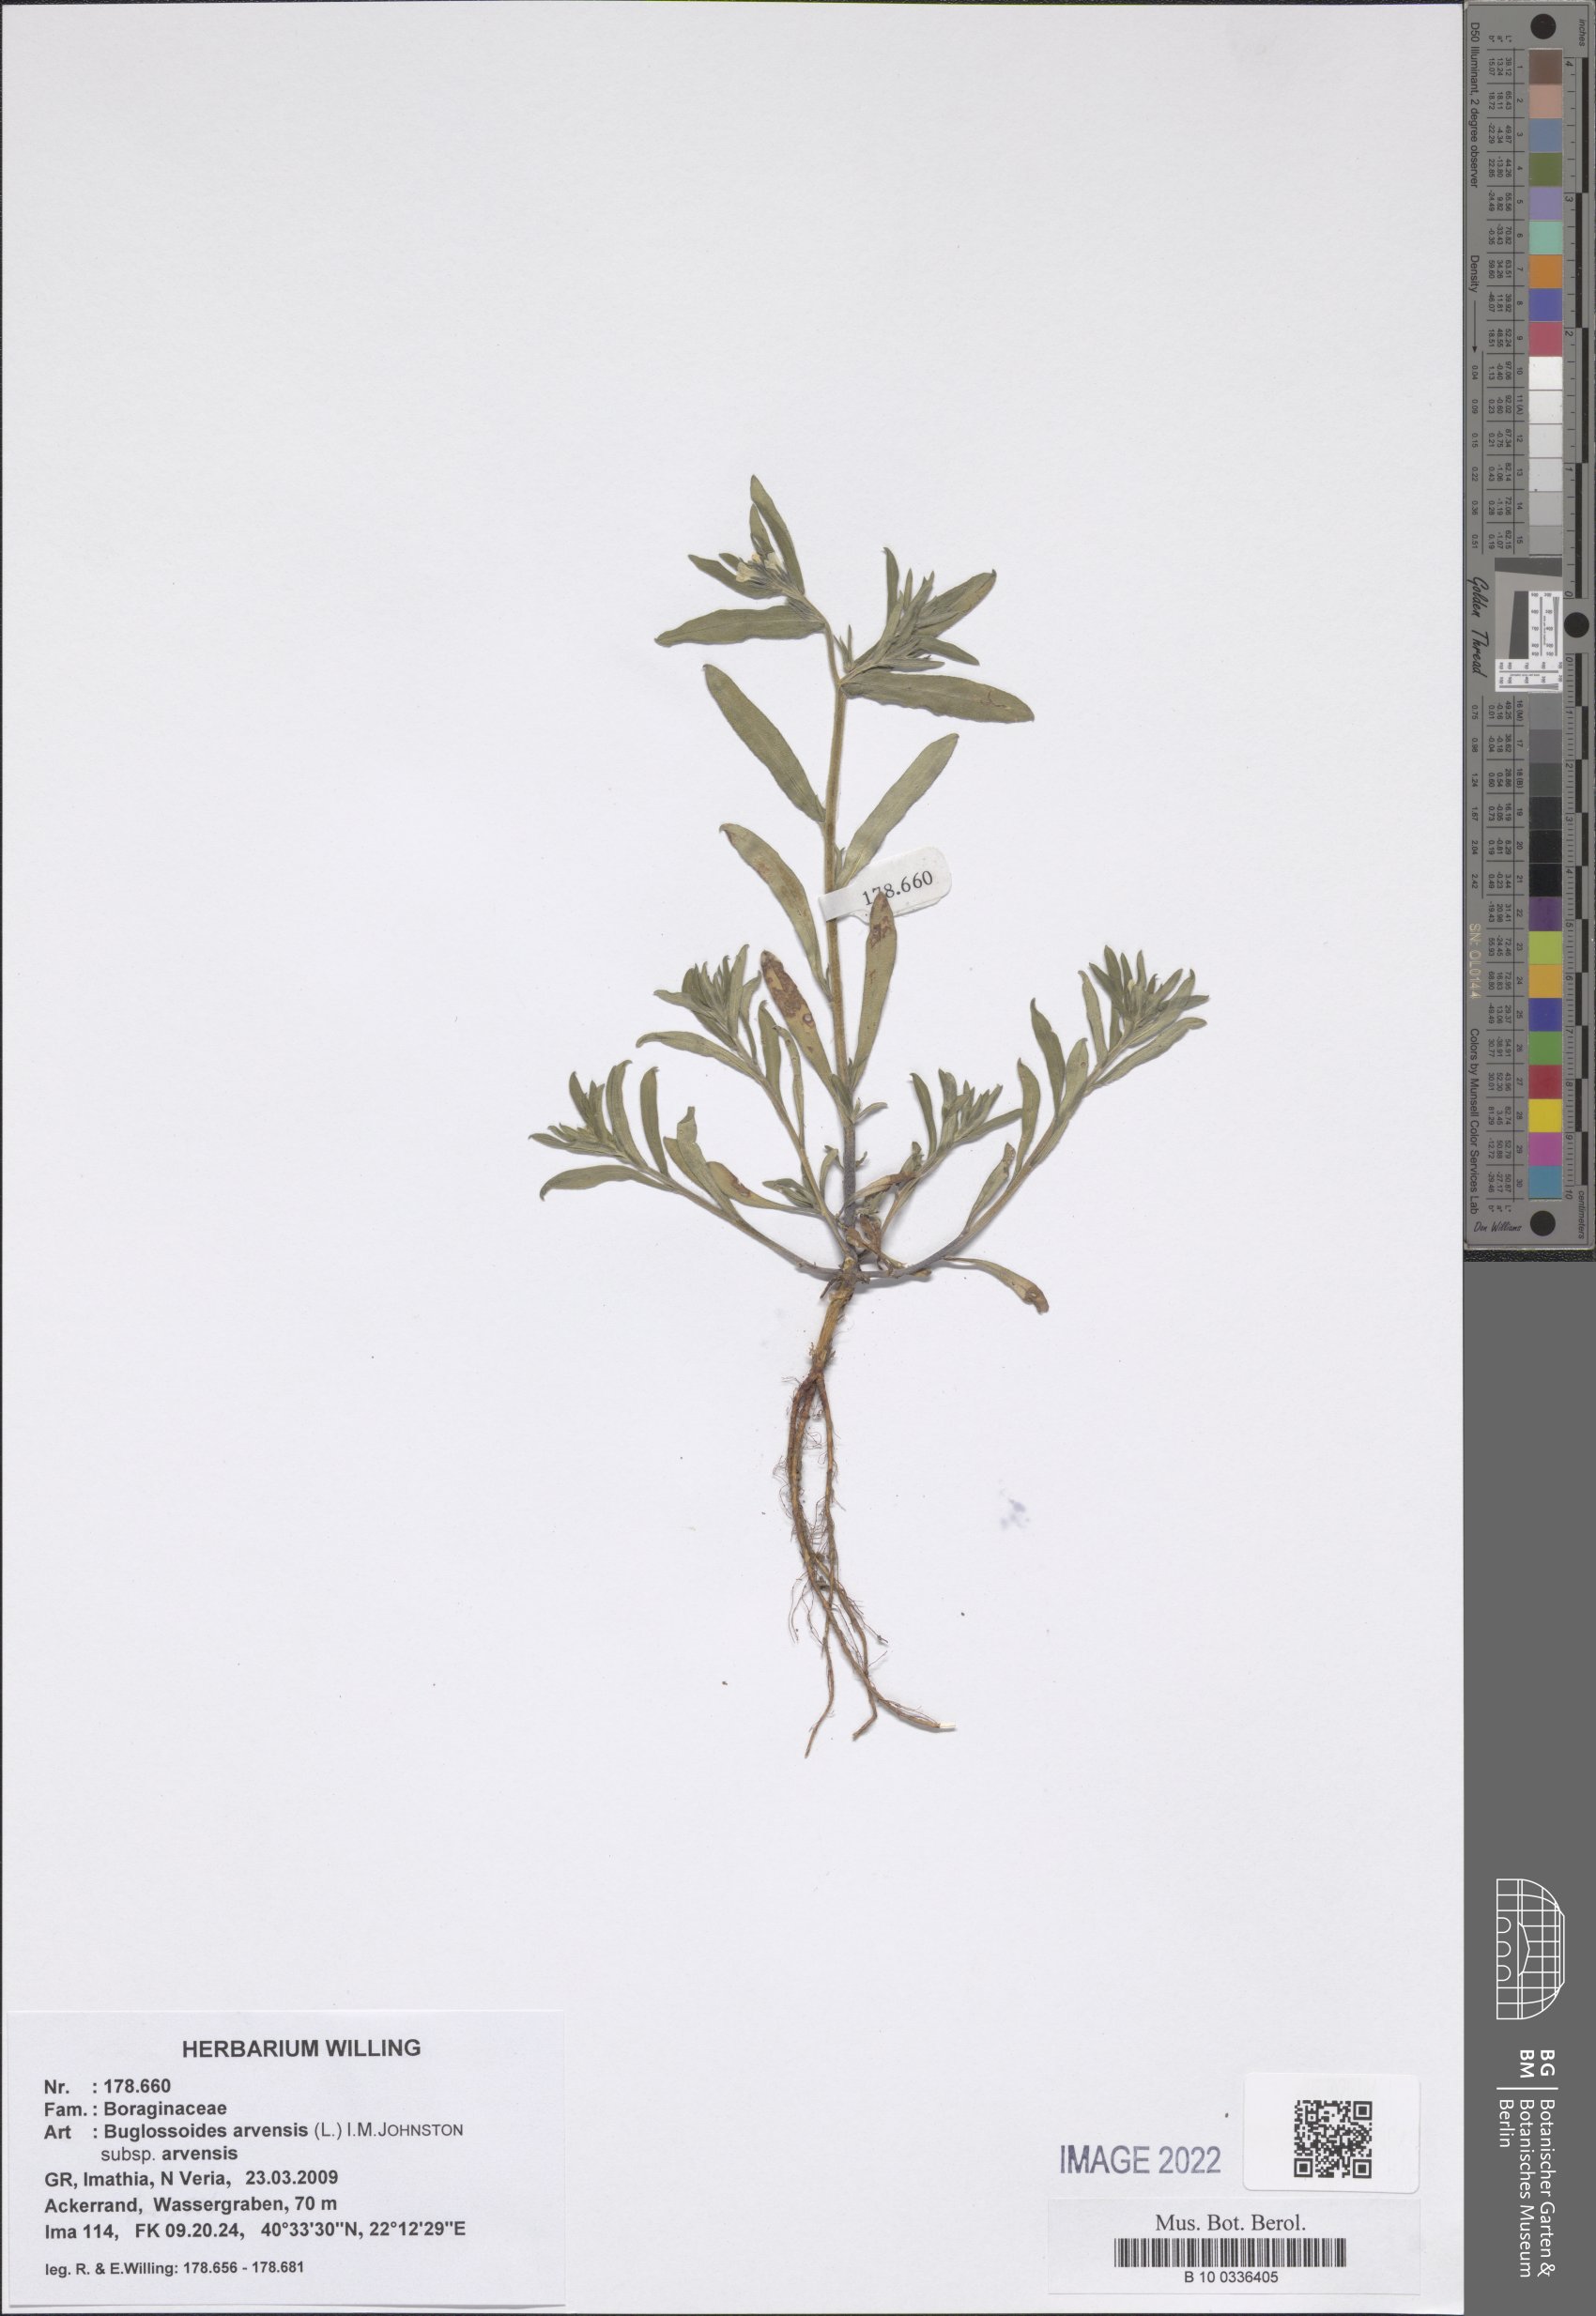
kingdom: Plantae
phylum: Tracheophyta
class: Magnoliopsida
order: Boraginales
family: Boraginaceae
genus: Buglossoides
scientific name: Buglossoides arvensis
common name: Corn gromwell
